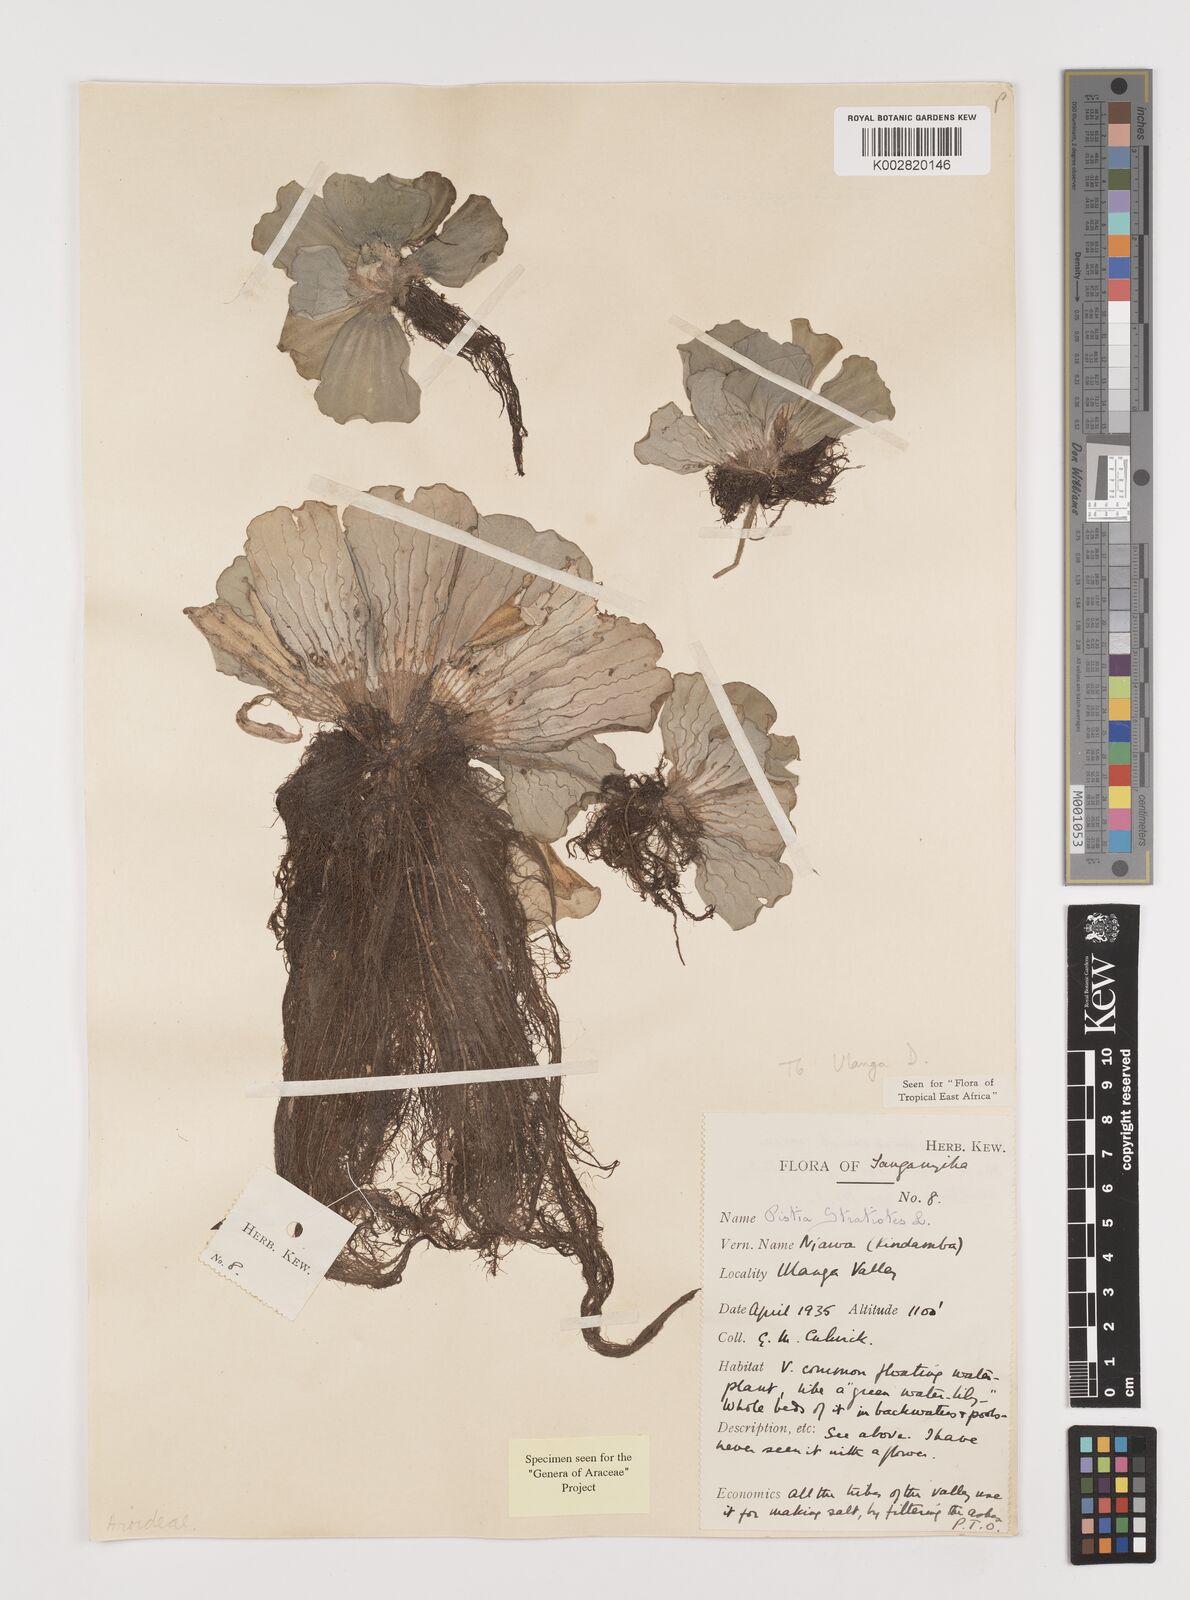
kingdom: Plantae
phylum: Tracheophyta
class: Liliopsida
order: Alismatales
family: Araceae
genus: Pistia
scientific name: Pistia stratiotes
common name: Water lettuce
